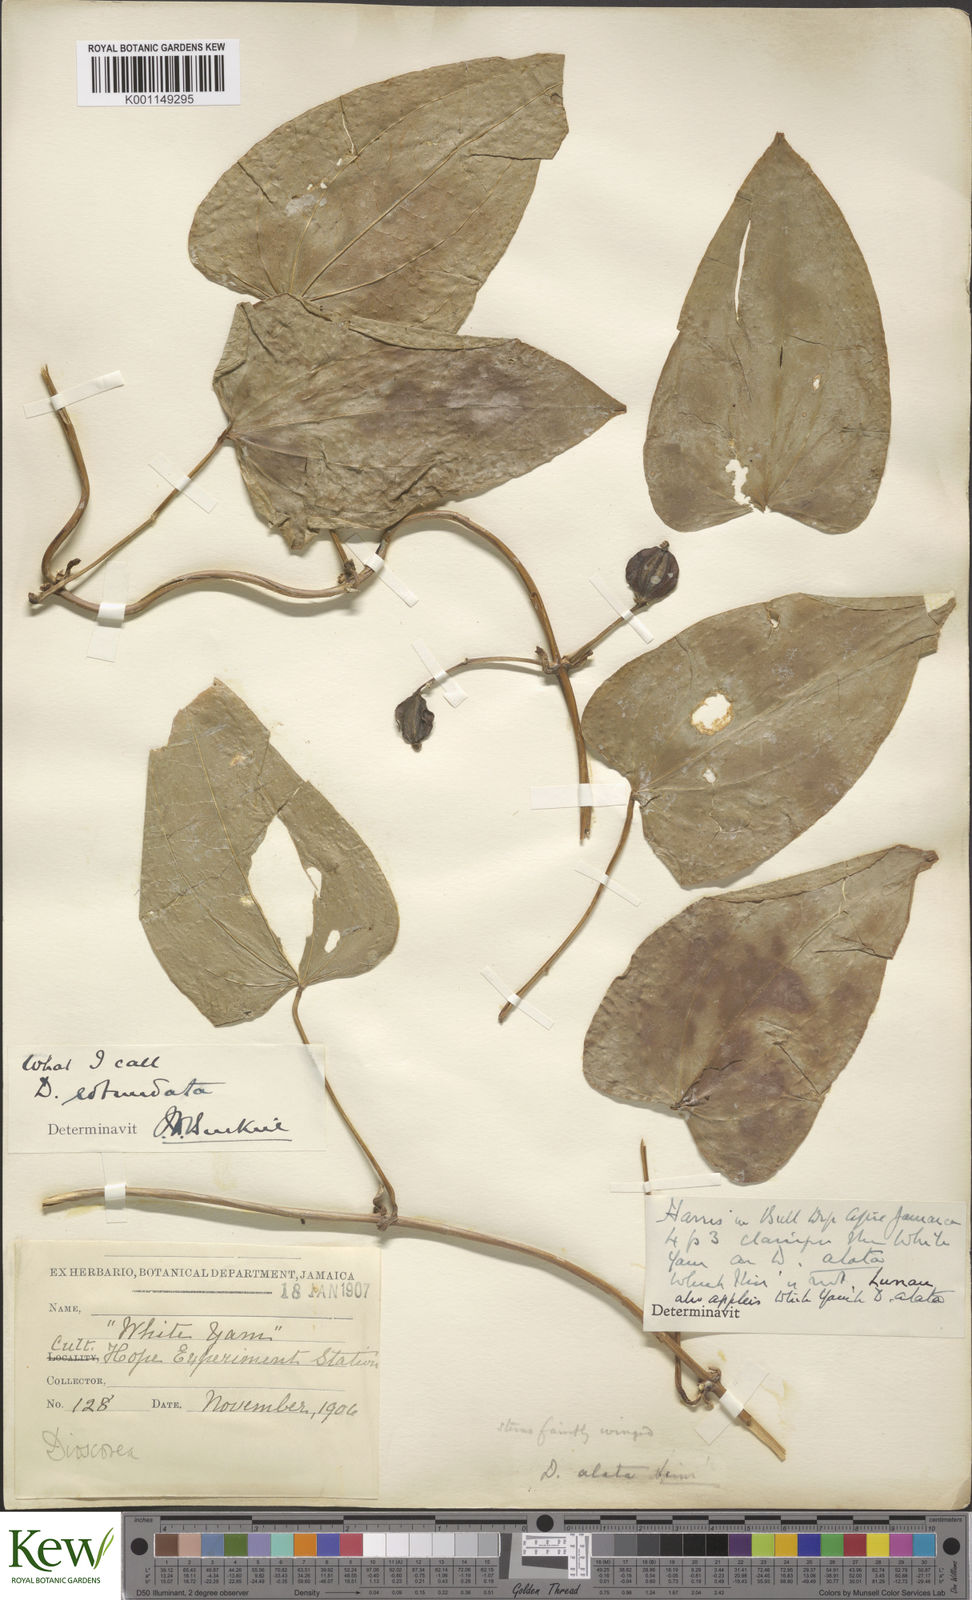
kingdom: Plantae
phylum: Tracheophyta
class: Liliopsida
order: Dioscoreales
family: Dioscoreaceae
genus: Dioscorea
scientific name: Dioscorea cayenensis
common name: Attoto yam
